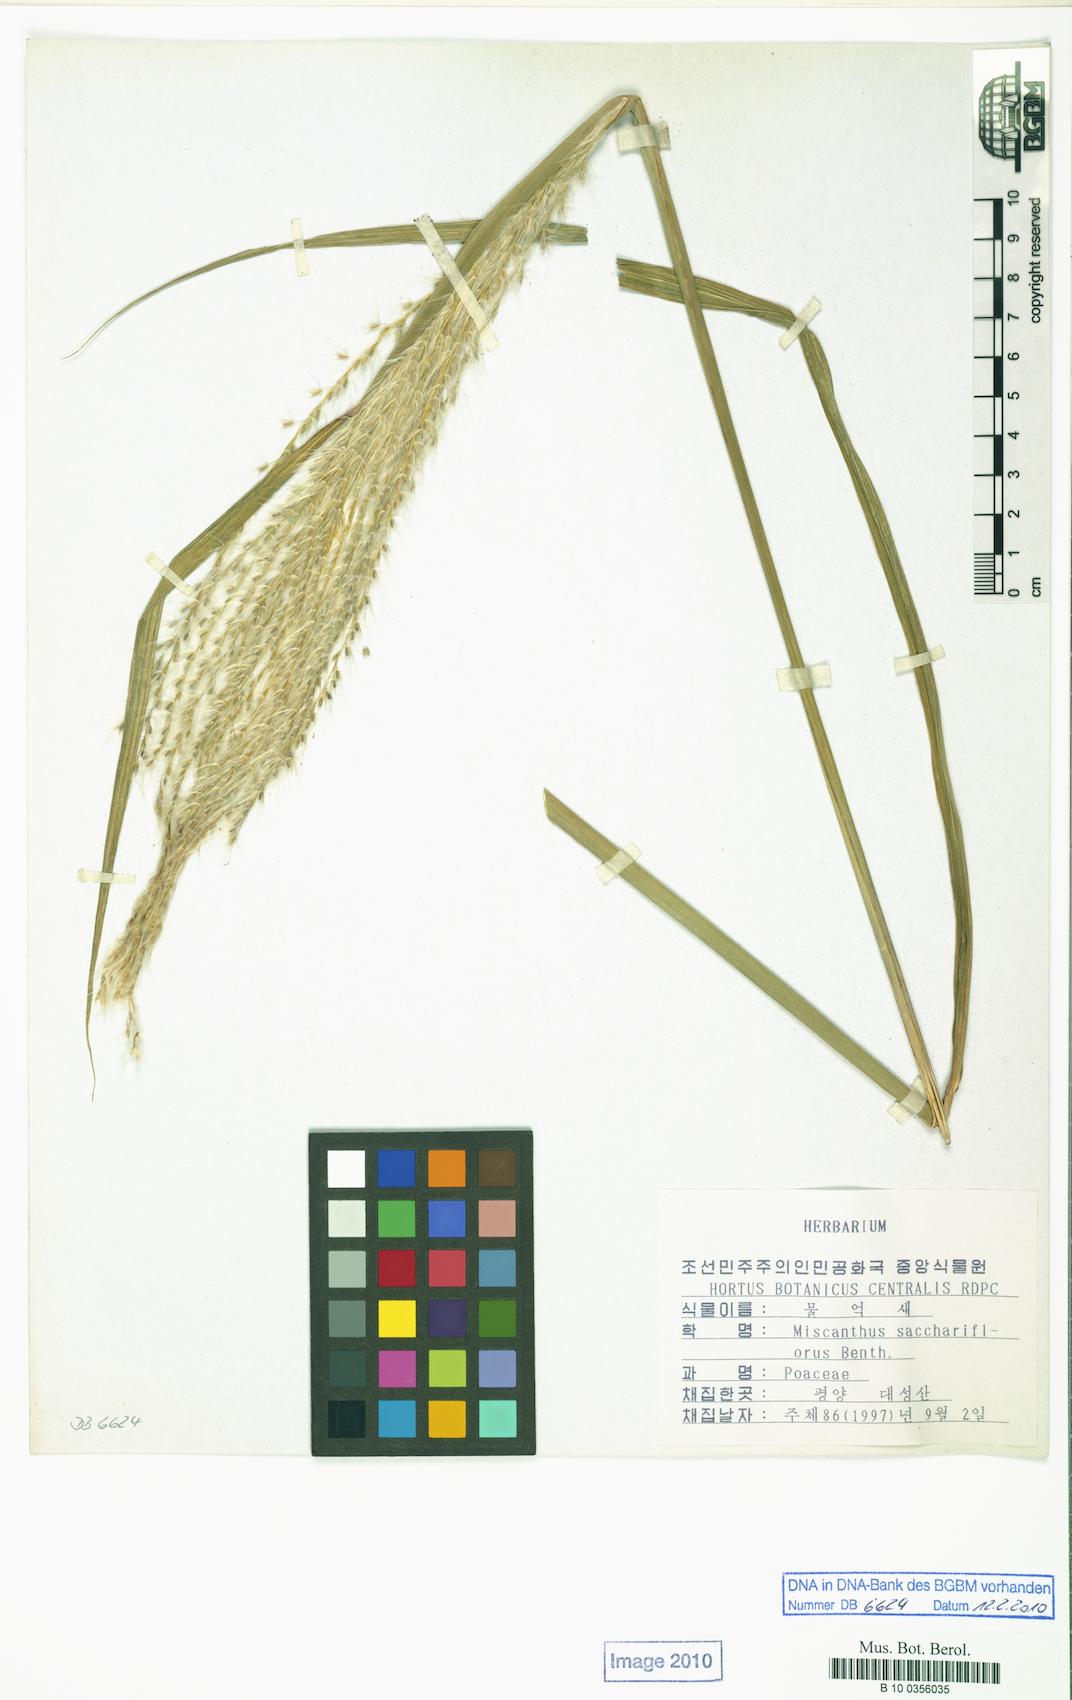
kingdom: Plantae
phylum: Tracheophyta
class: Liliopsida
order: Poales
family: Poaceae
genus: Miscanthus
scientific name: Miscanthus sacchariflorus
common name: Amur silver grass
